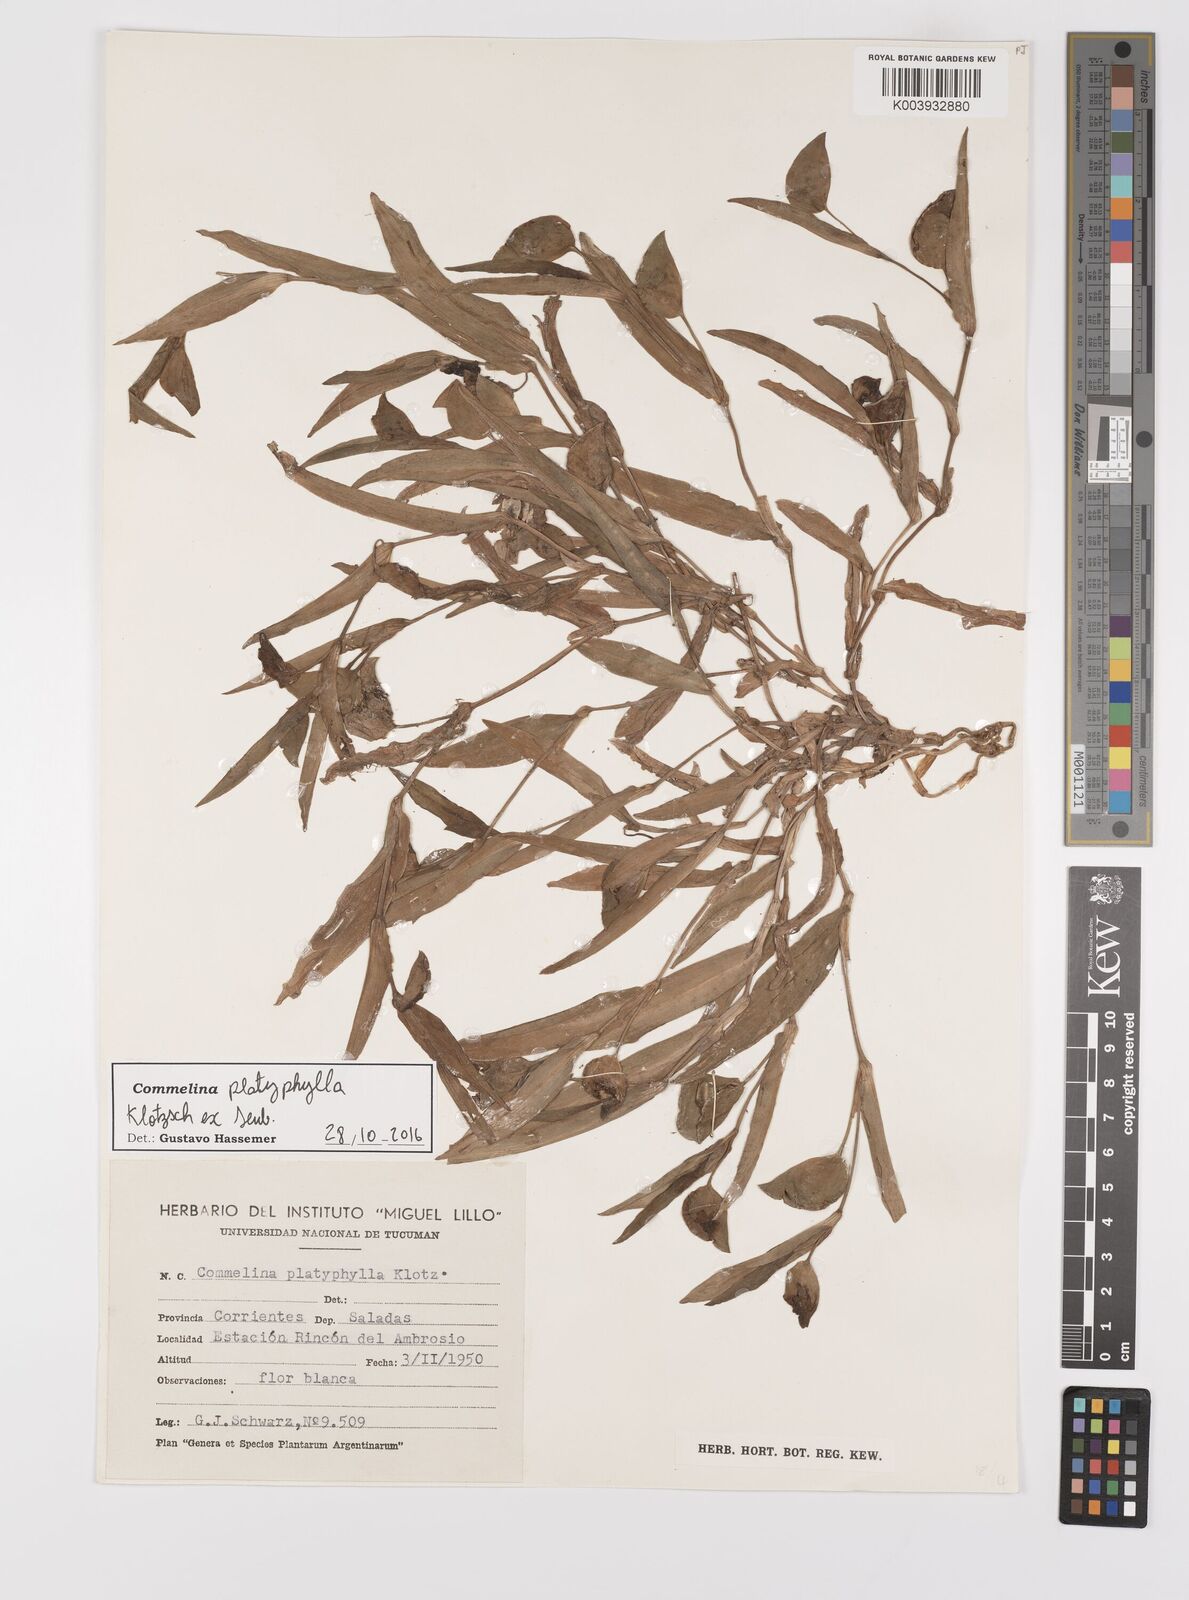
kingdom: Plantae
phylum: Tracheophyta
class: Liliopsida
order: Commelinales
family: Commelinaceae
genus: Commelina
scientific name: Commelina platyphylla
